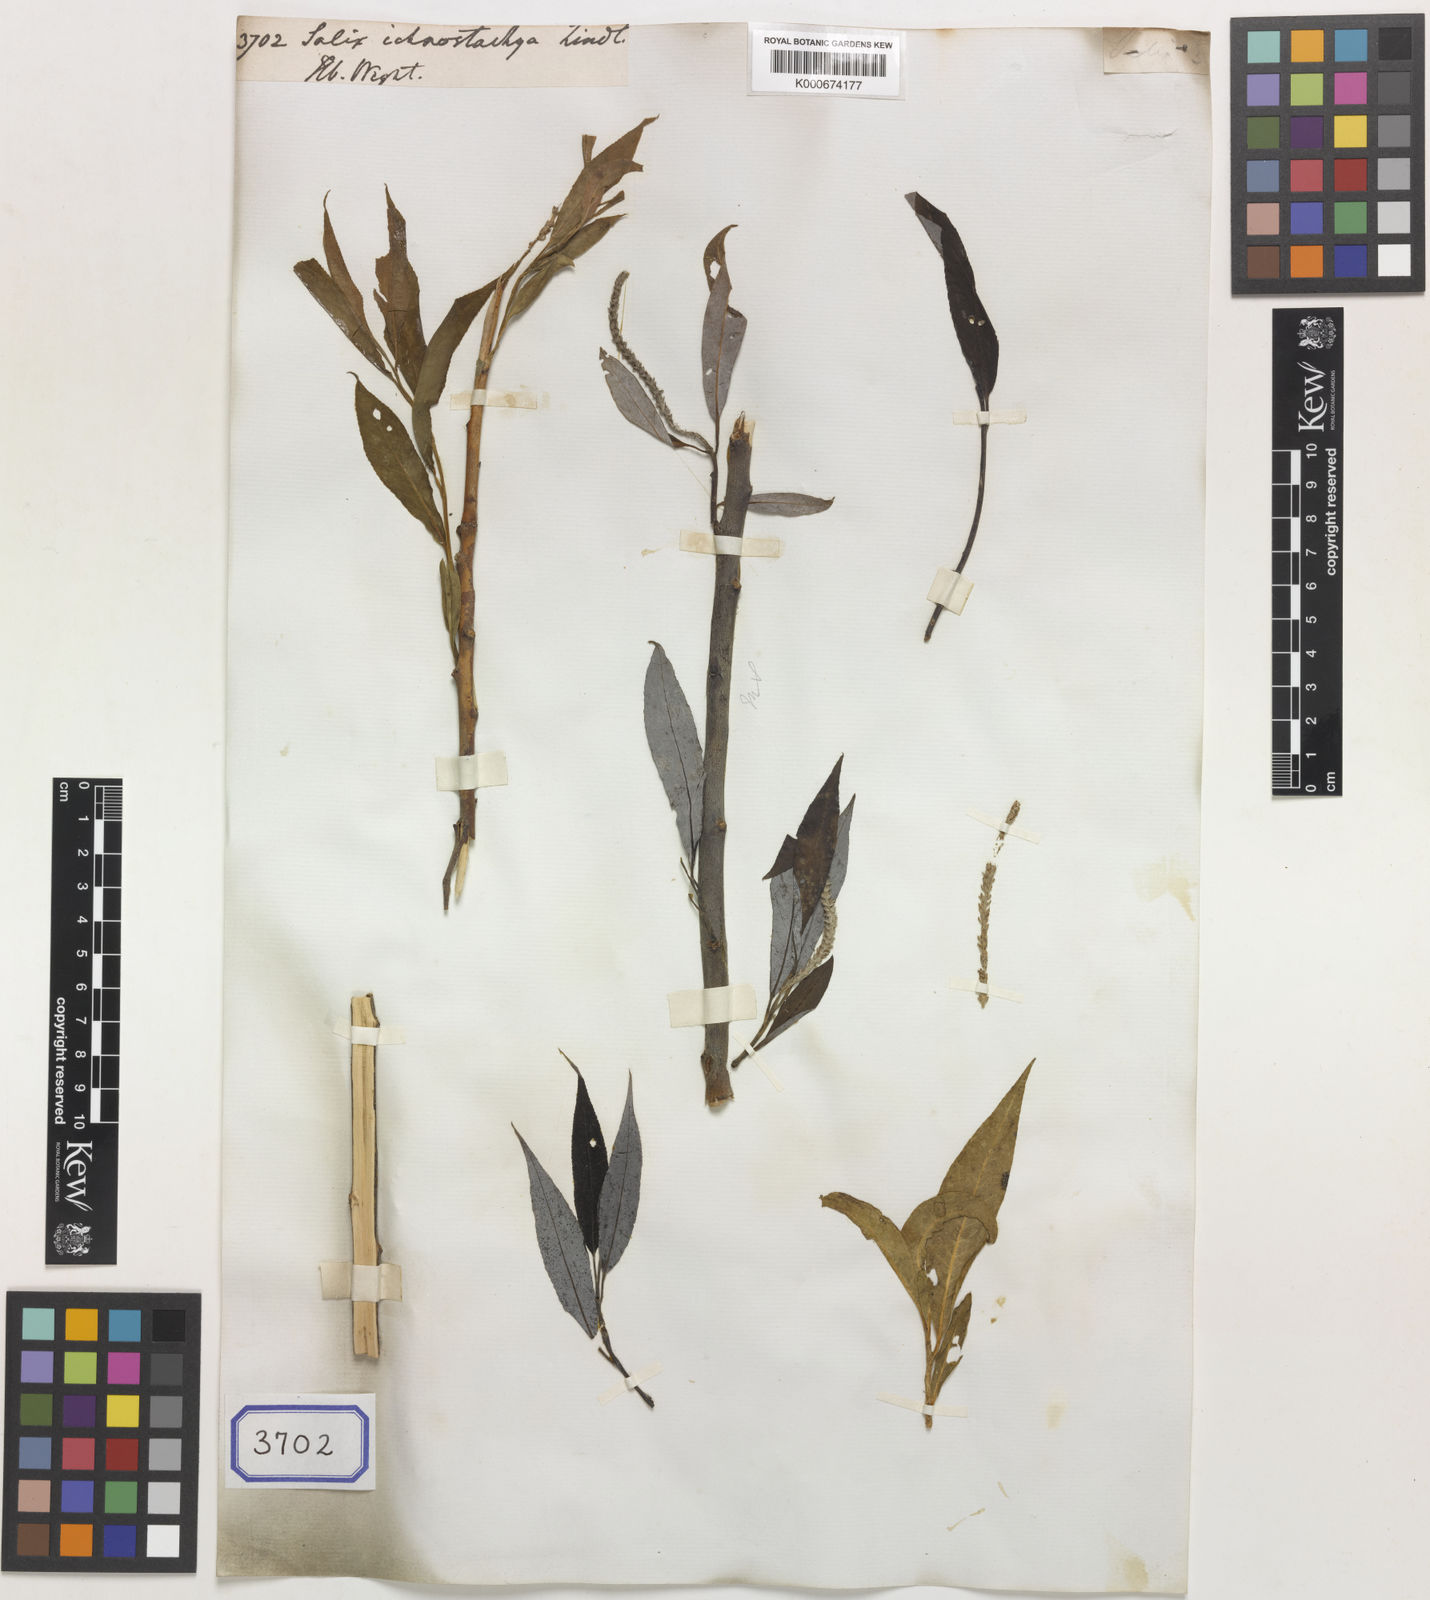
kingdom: Plantae
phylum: Tracheophyta
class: Magnoliopsida
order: Malpighiales
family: Salicaceae
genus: Salix
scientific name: Salix
